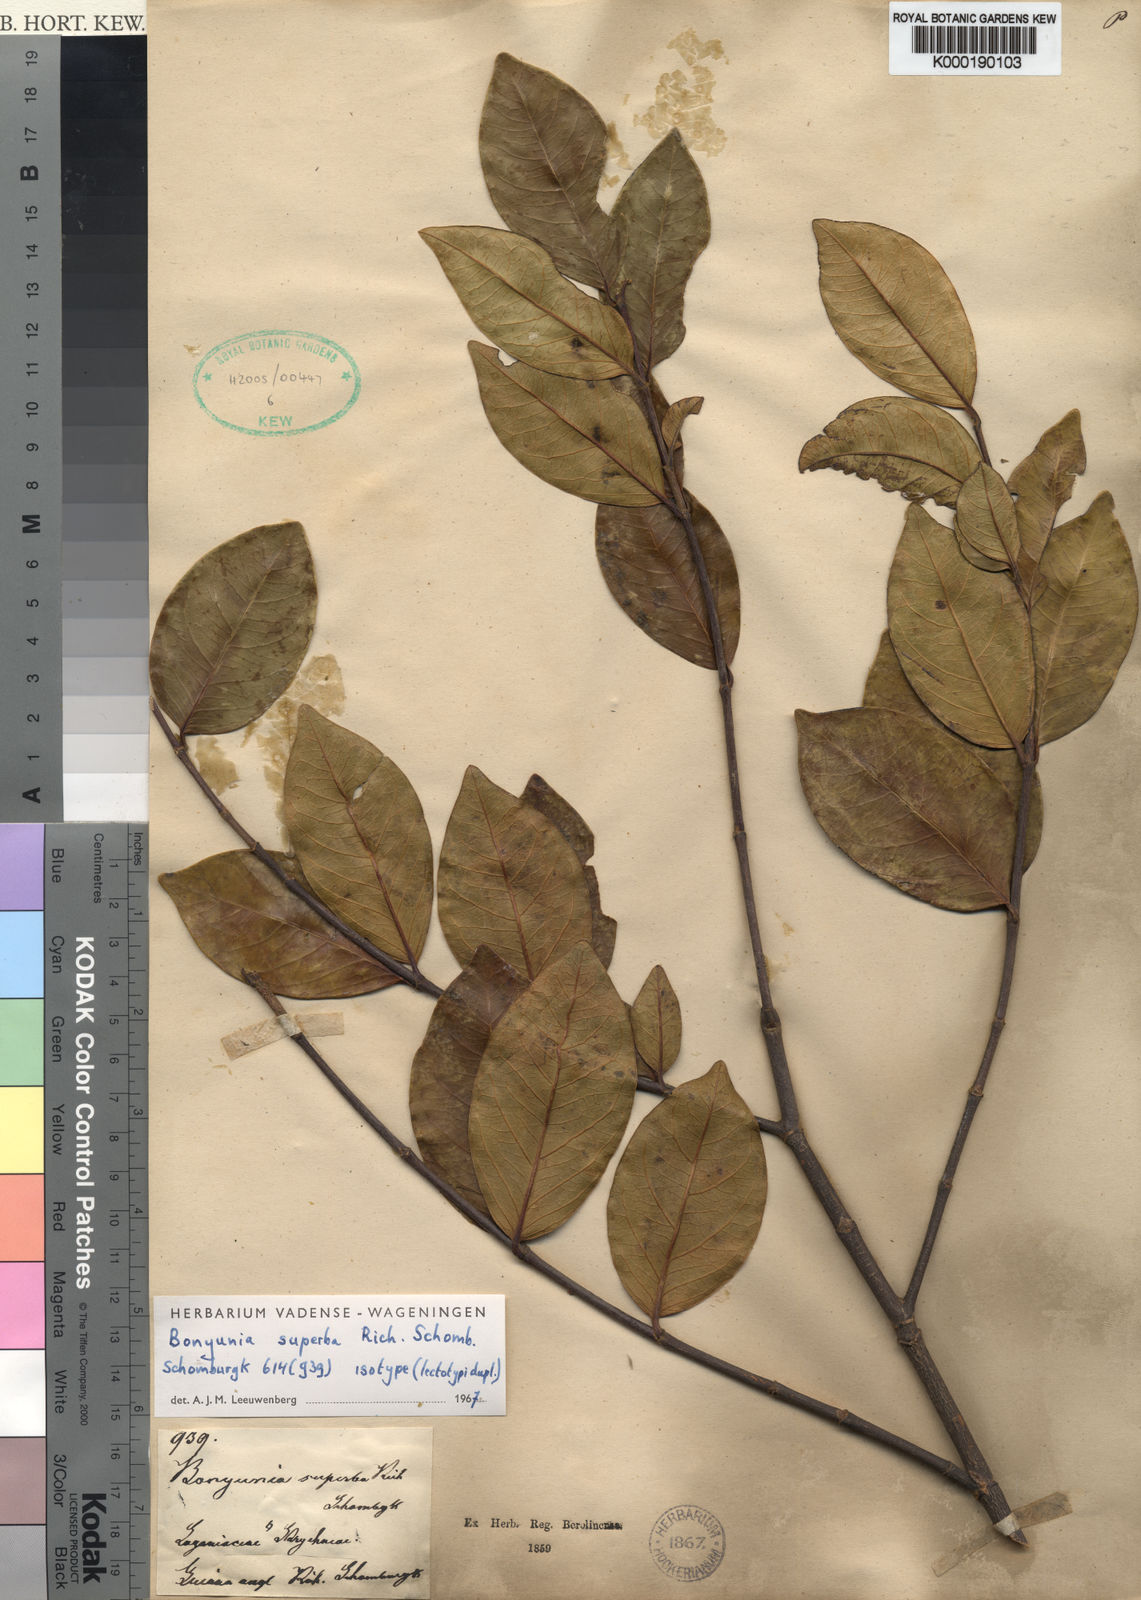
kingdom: Plantae
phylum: Tracheophyta
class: Magnoliopsida
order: Gentianales
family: Loganiaceae
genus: Bonyunia
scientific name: Bonyunia superba
